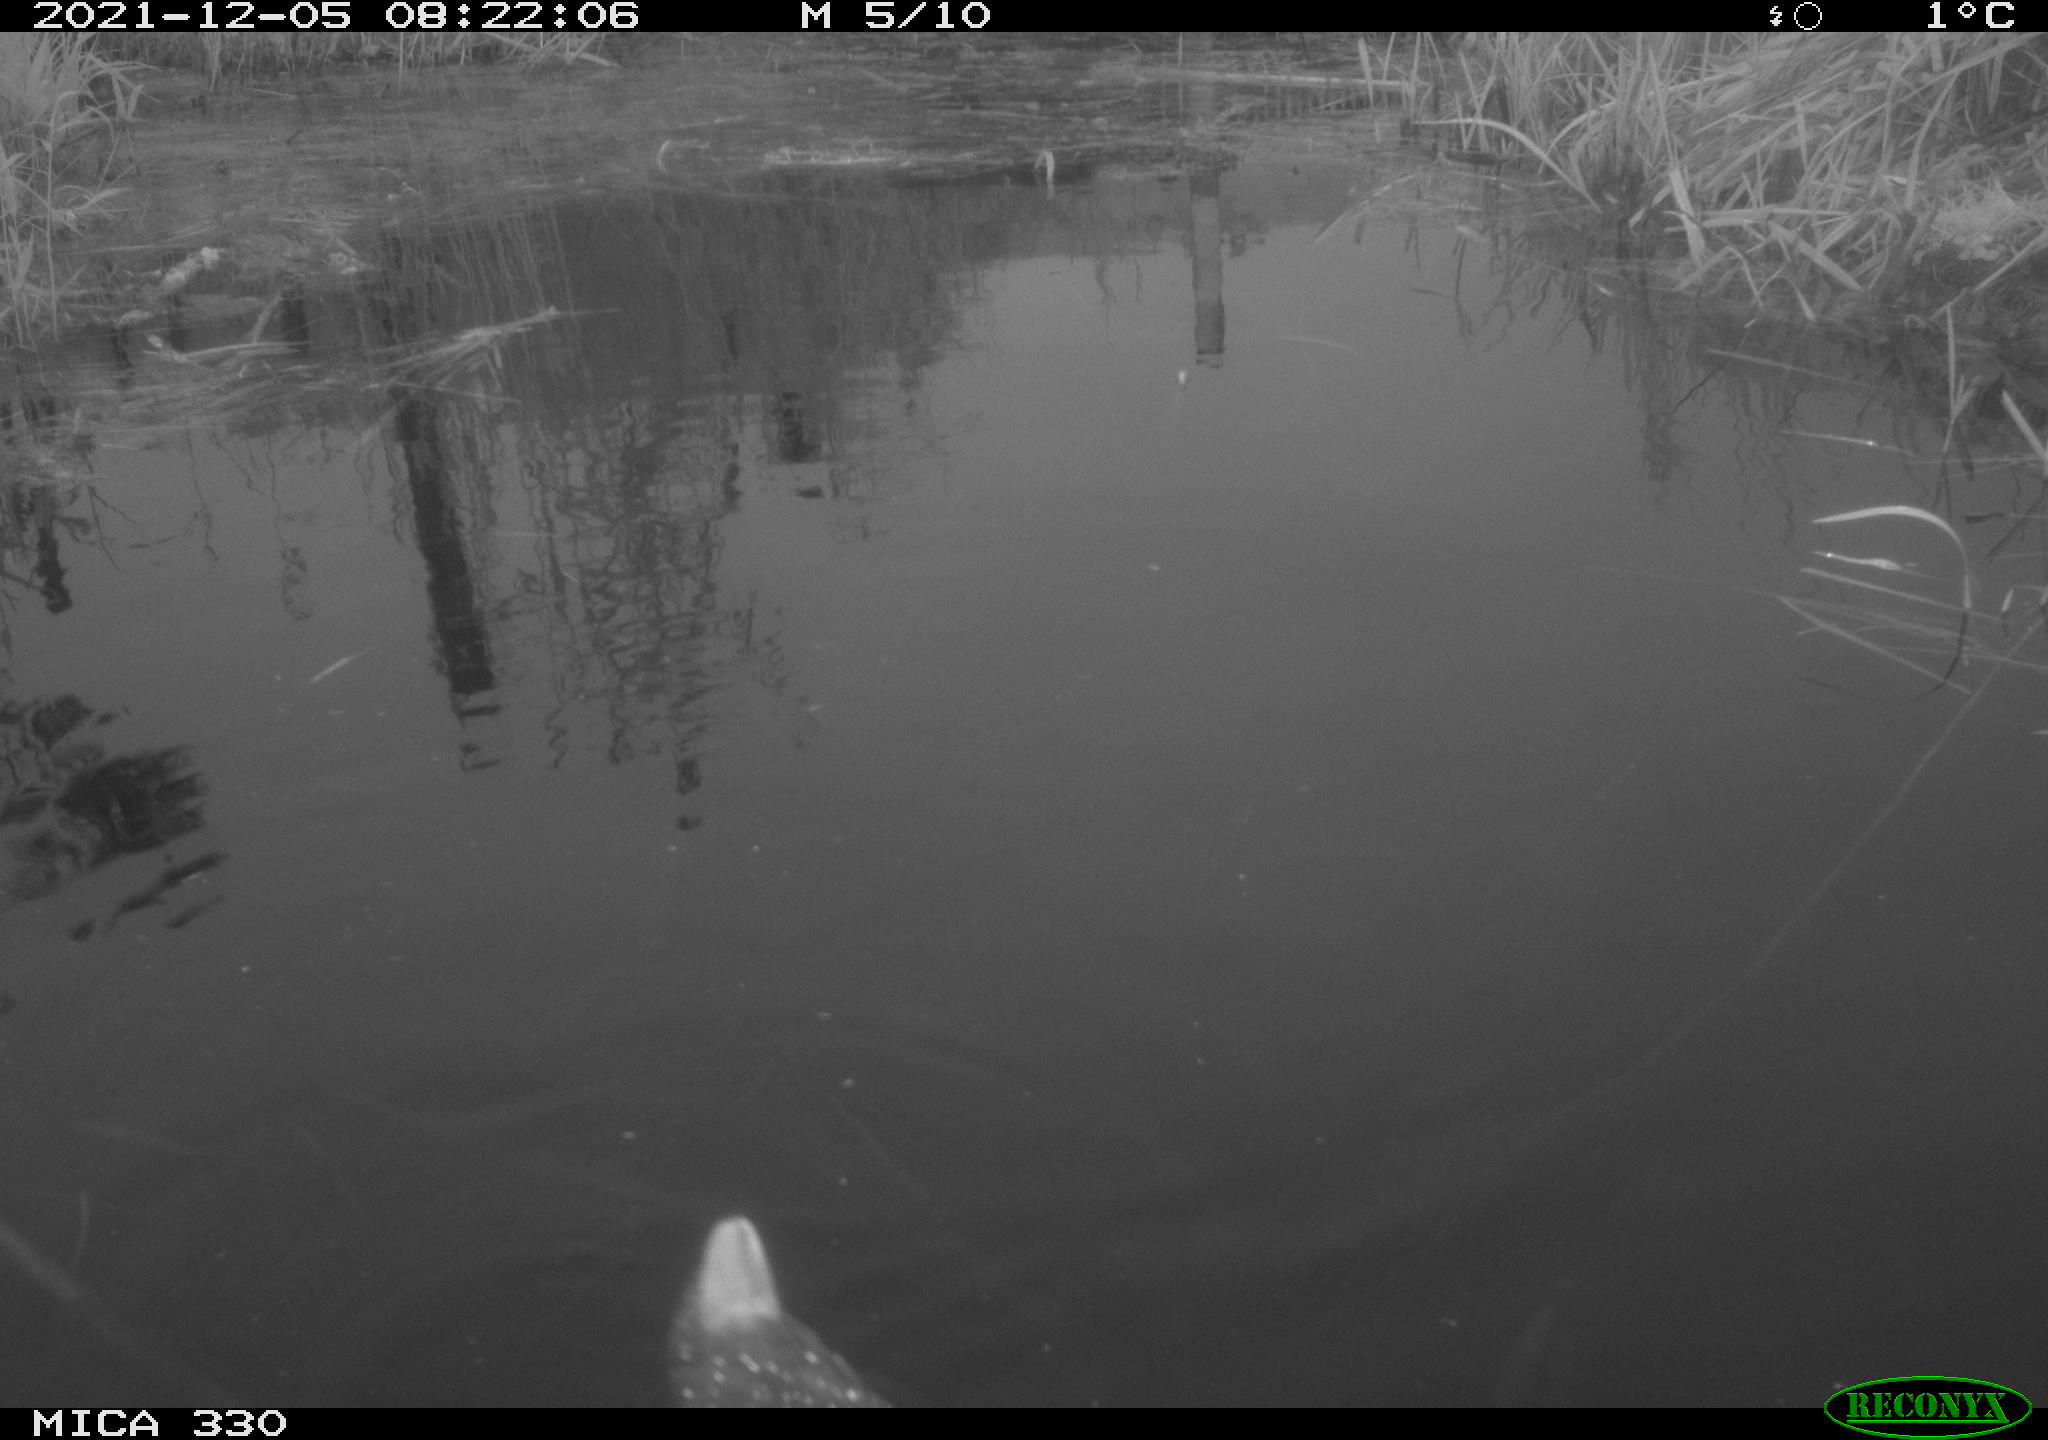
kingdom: Animalia
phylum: Chordata
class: Aves
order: Gruiformes
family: Rallidae
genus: Gallinula
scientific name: Gallinula chloropus
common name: Common moorhen
